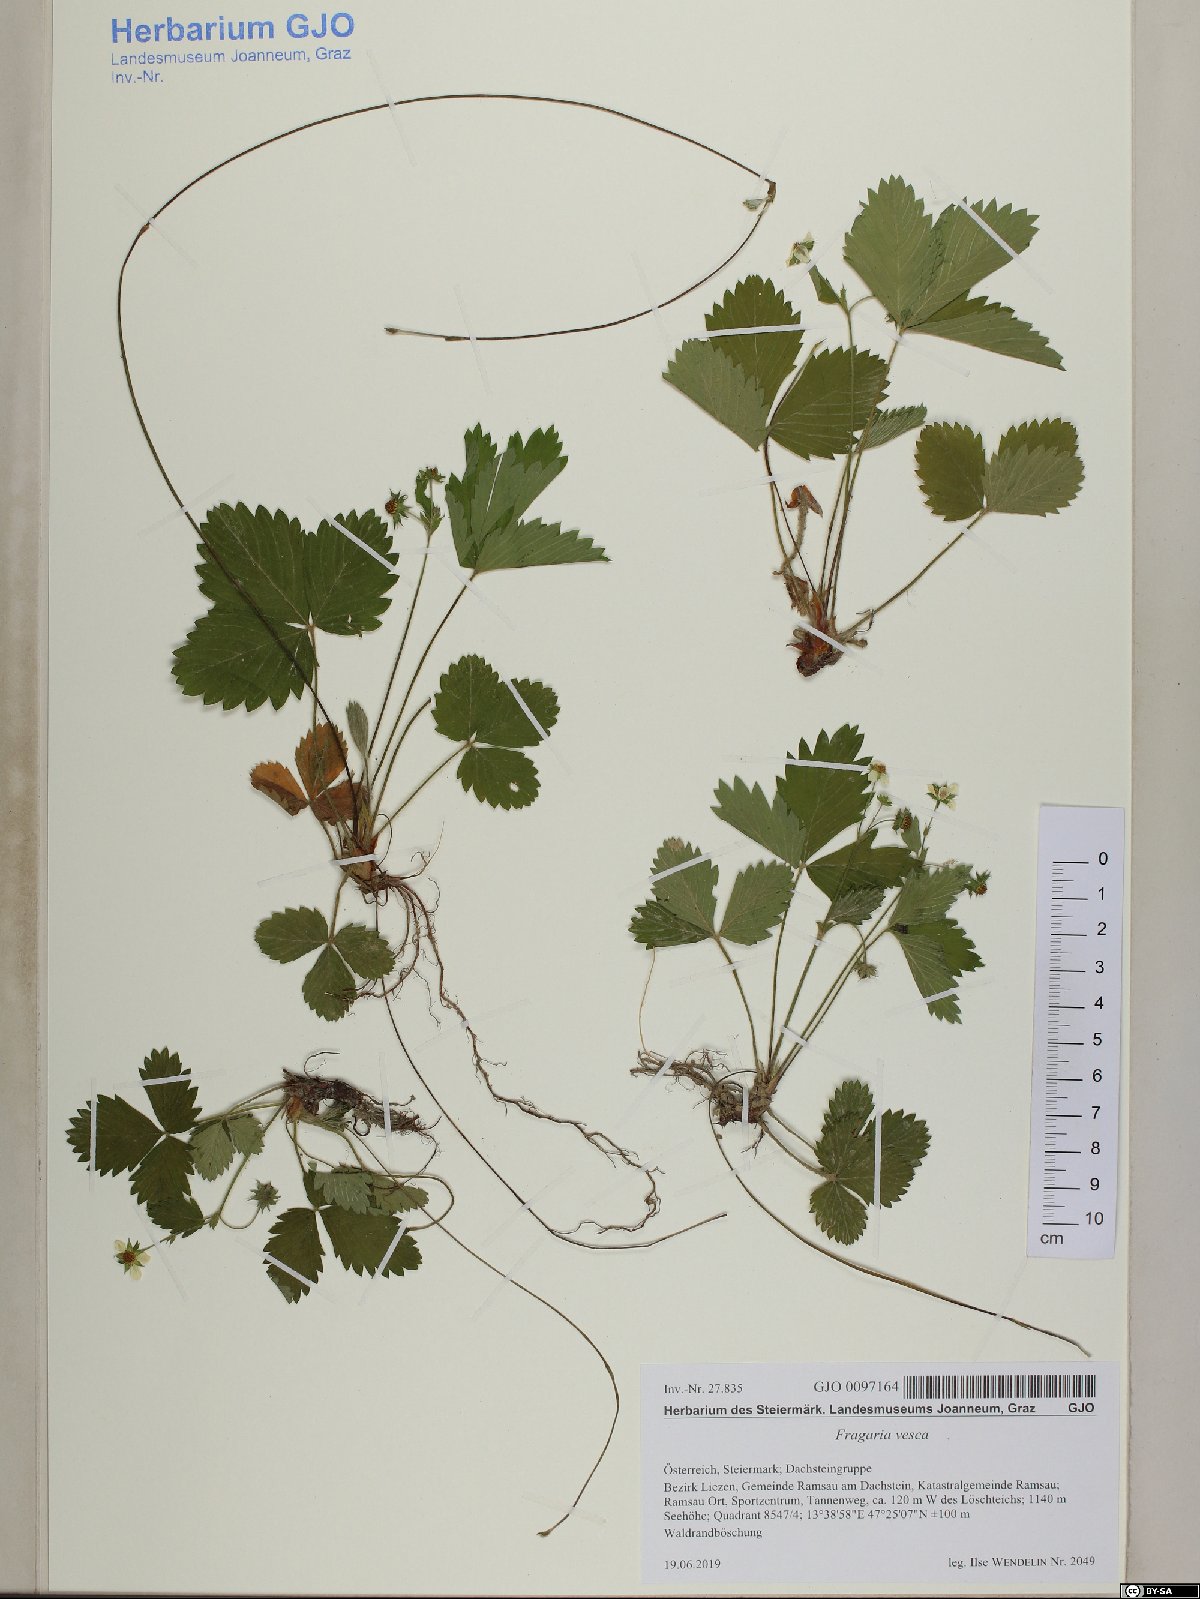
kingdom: Plantae
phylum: Tracheophyta
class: Magnoliopsida
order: Rosales
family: Rosaceae
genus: Fragaria
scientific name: Fragaria vesca
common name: Wild strawberry
